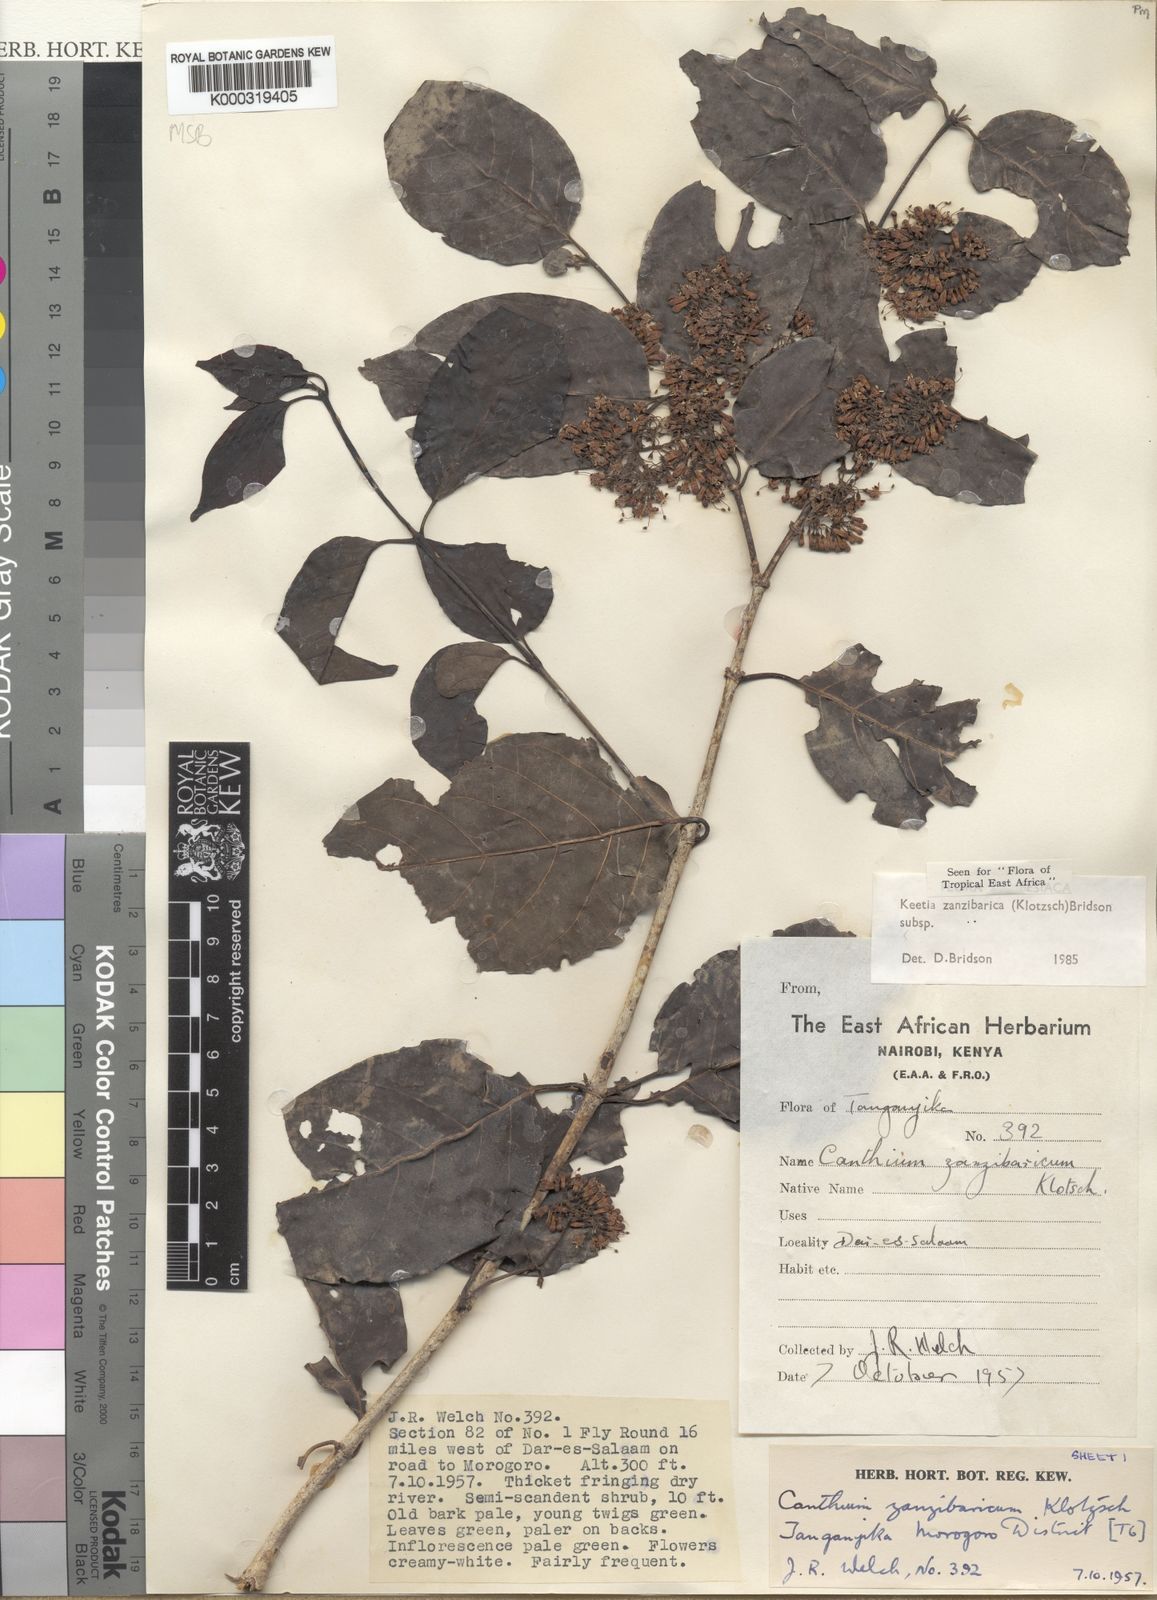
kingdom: Plantae
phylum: Tracheophyta
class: Magnoliopsida
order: Gentianales
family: Rubiaceae
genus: Keetia
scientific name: Keetia zanzibarica
